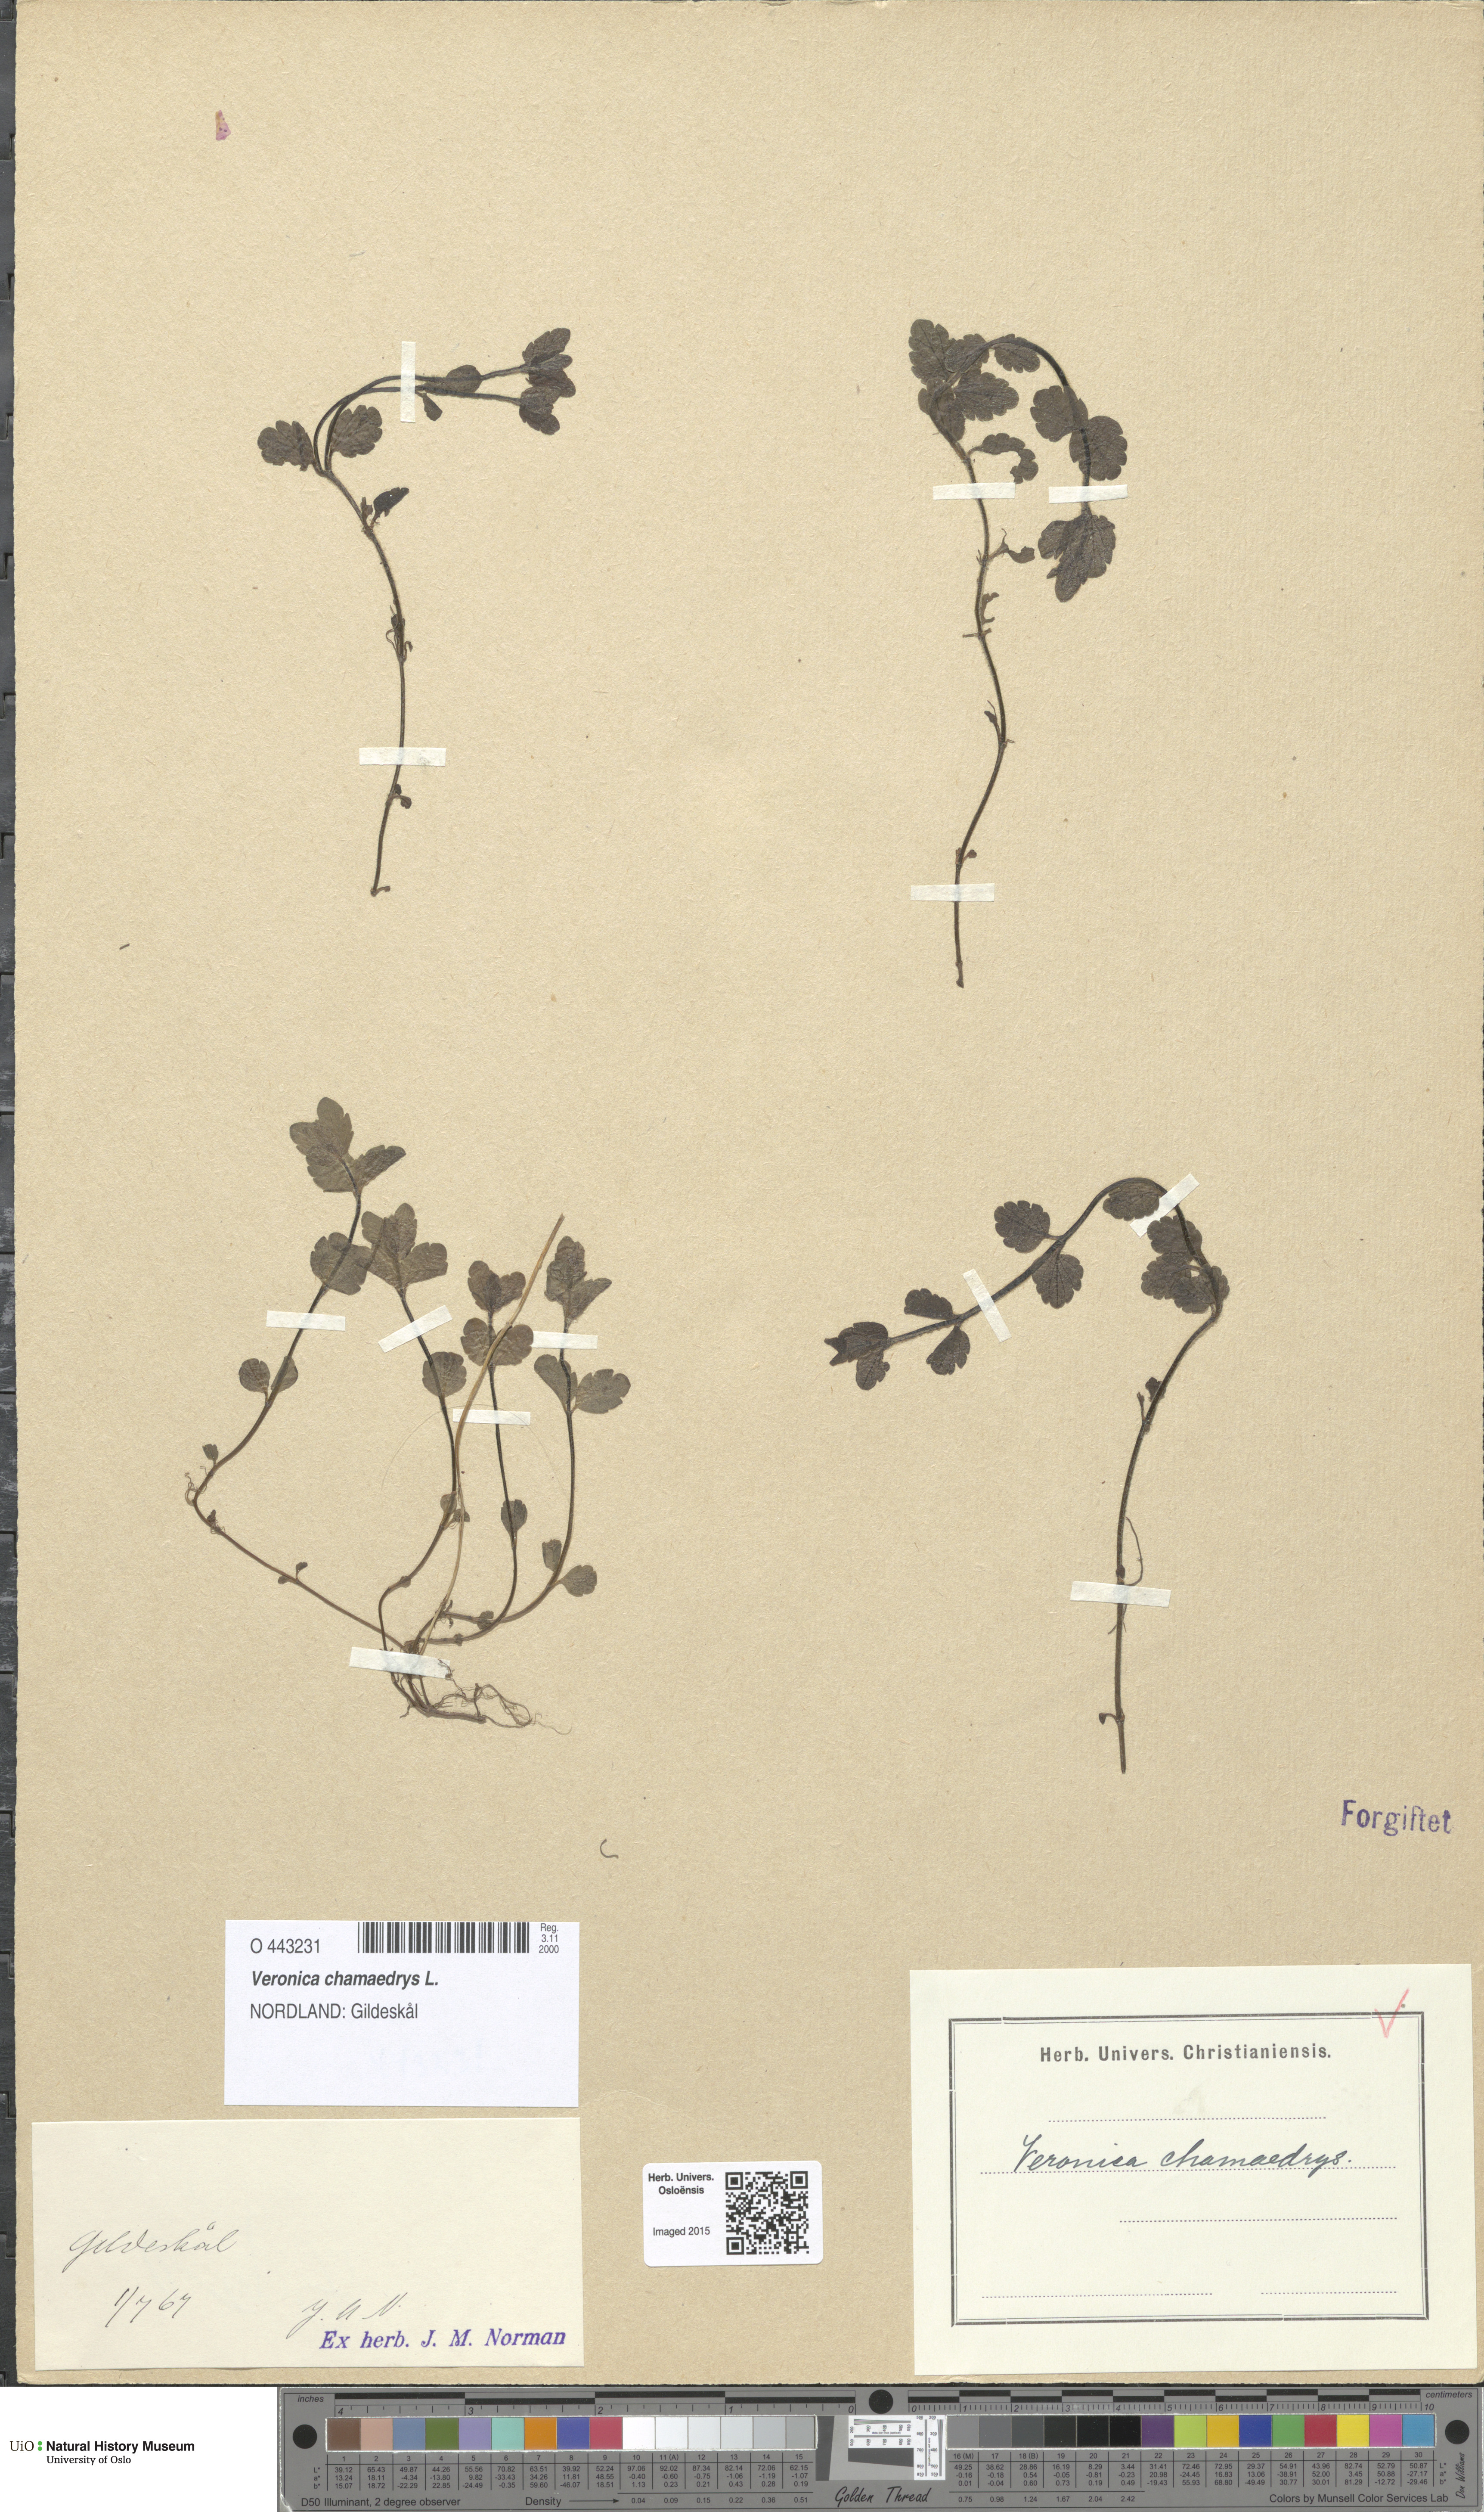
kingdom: Plantae
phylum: Tracheophyta
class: Magnoliopsida
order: Lamiales
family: Plantaginaceae
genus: Veronica
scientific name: Veronica chamaedrys
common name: Germander speedwell
